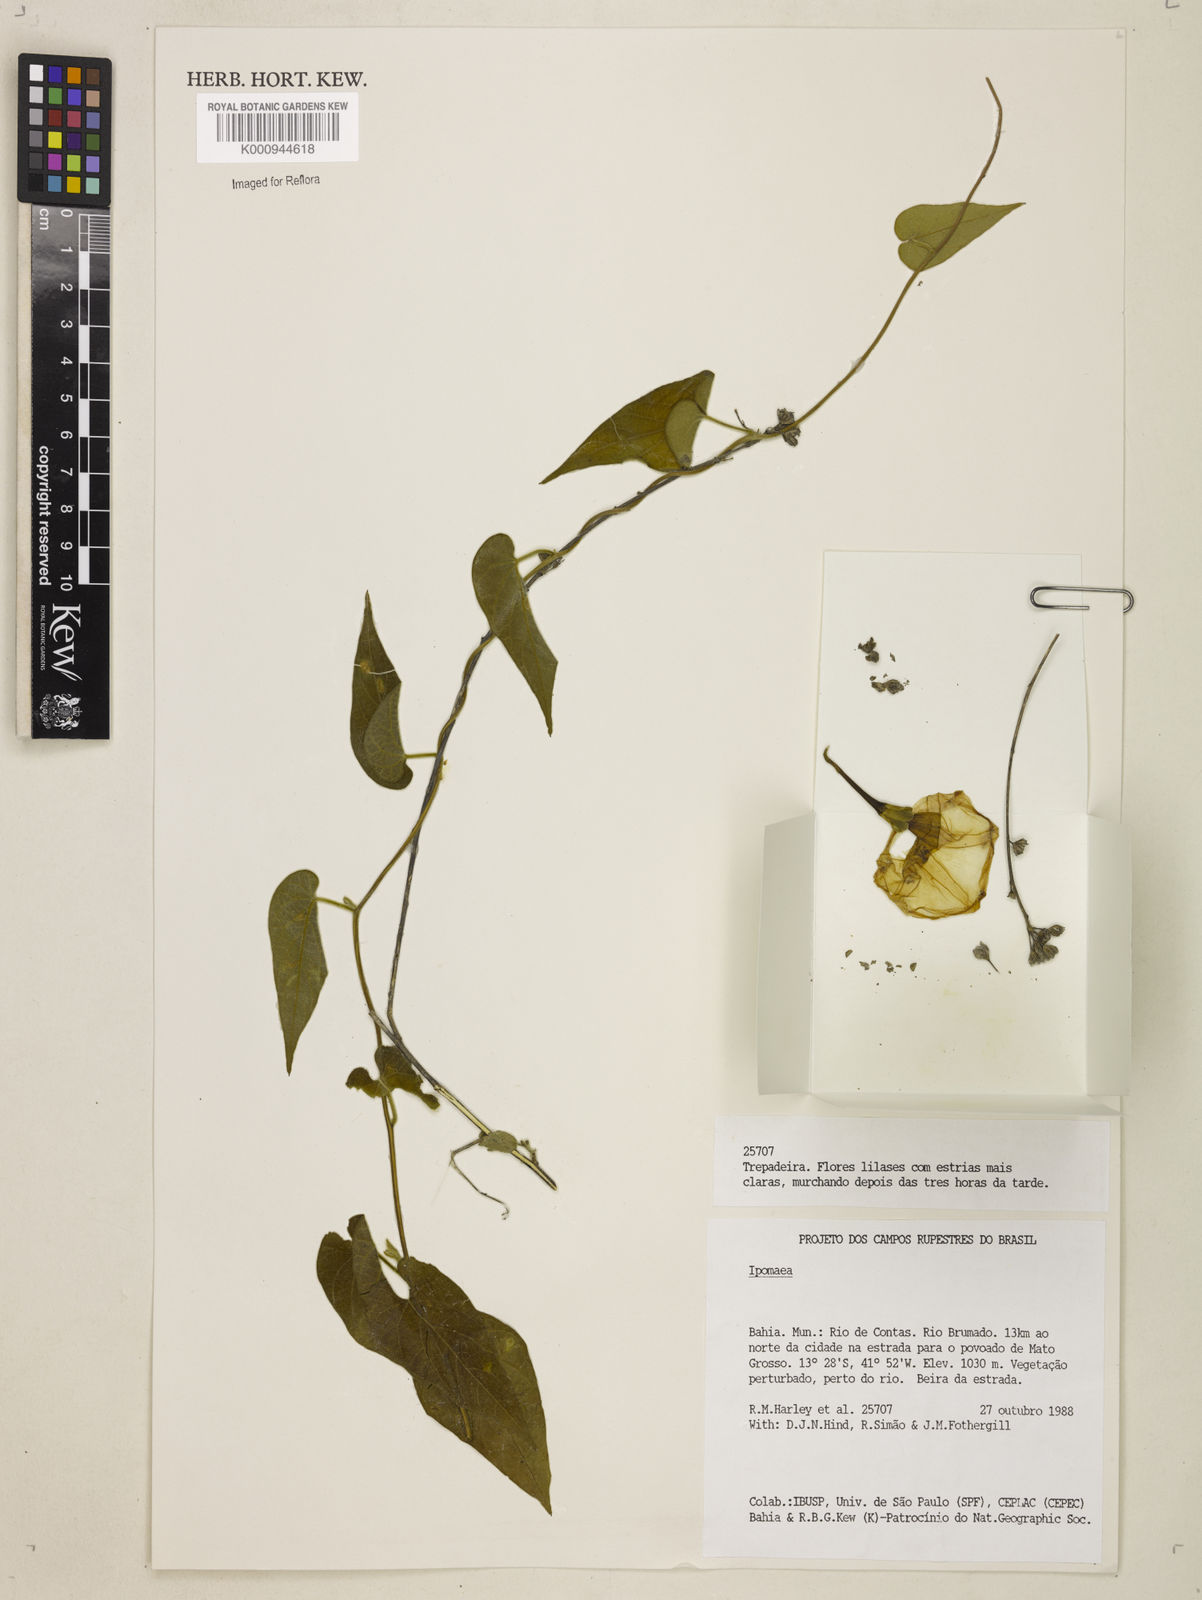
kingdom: Plantae
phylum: Tracheophyta
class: Magnoliopsida
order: Solanales
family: Convolvulaceae
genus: Ipomoea
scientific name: Ipomoea chapadensis
